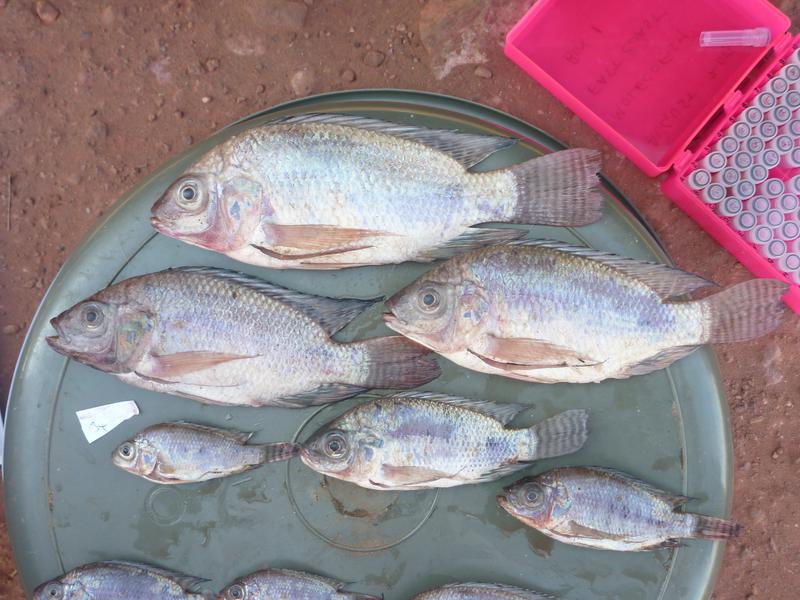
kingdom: Animalia
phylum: Chordata
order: Perciformes
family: Cichlidae
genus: Oreochromis
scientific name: Oreochromis niloticus
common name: Nile tilapia
